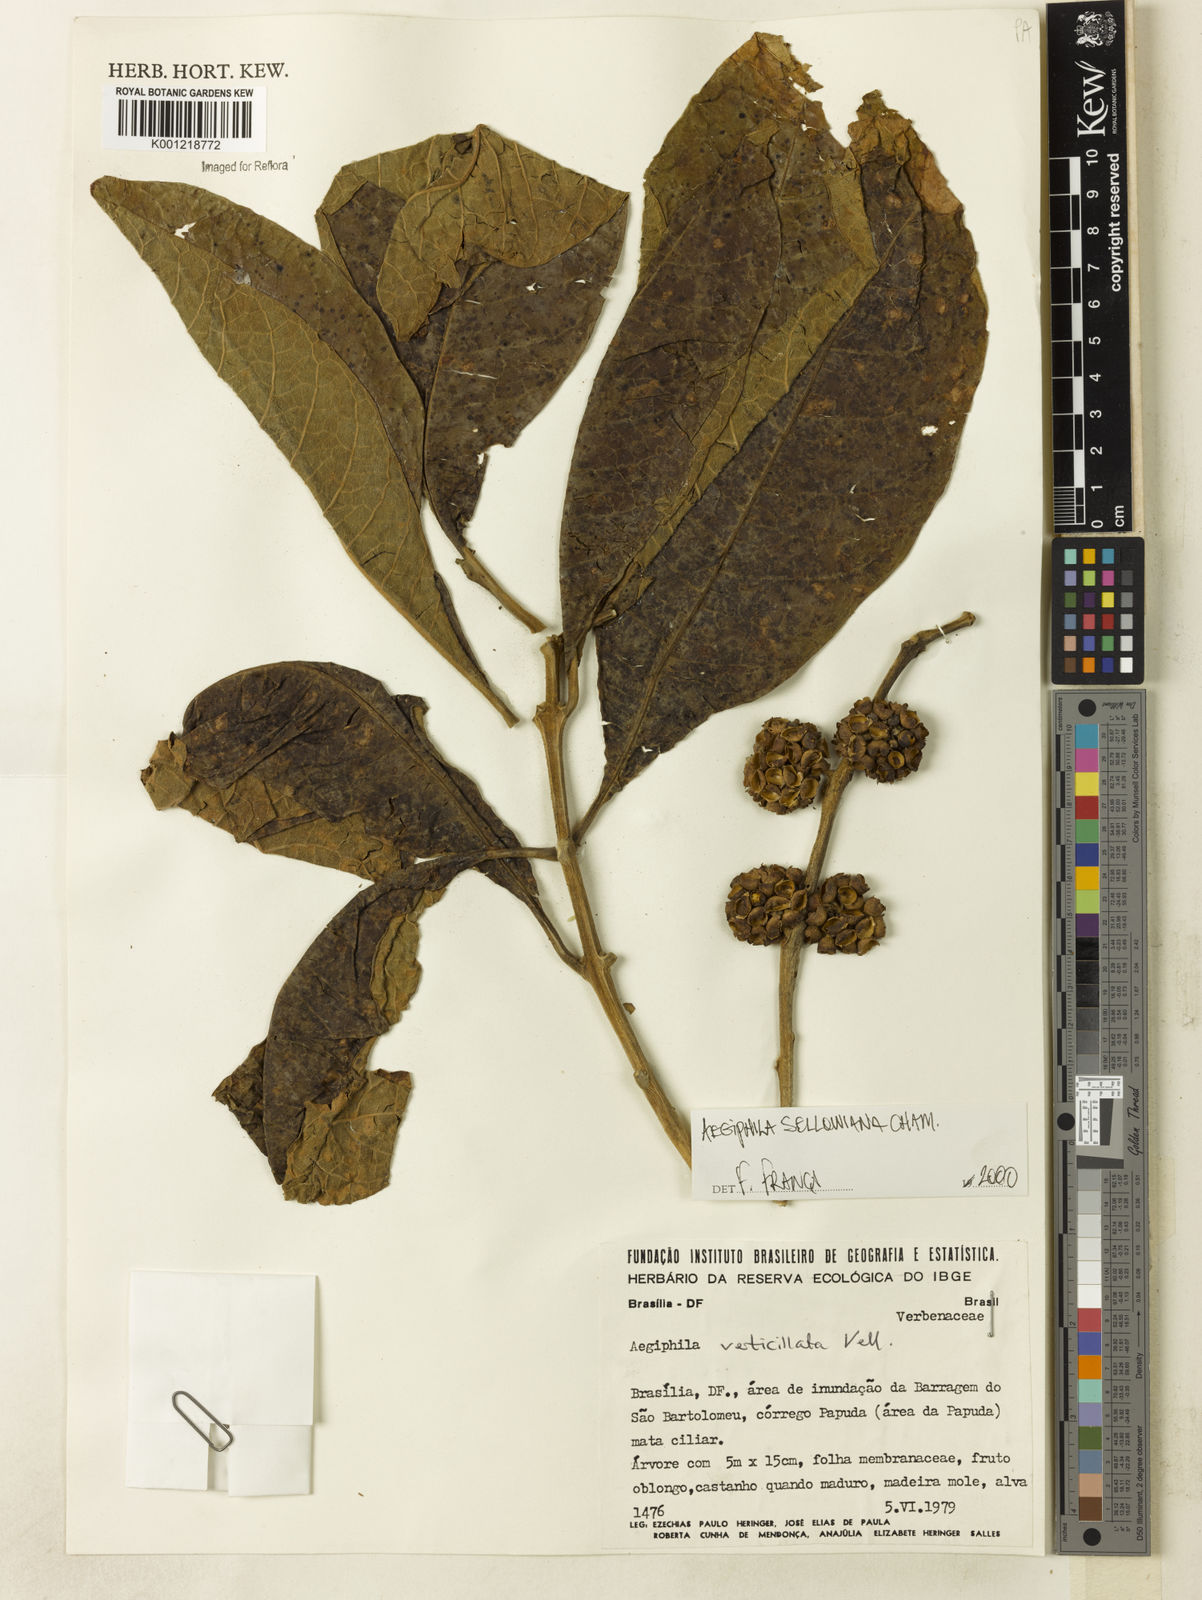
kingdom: Plantae
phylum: Tracheophyta
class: Magnoliopsida
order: Lamiales
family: Lamiaceae
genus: Aegiphila
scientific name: Aegiphila verticillata
